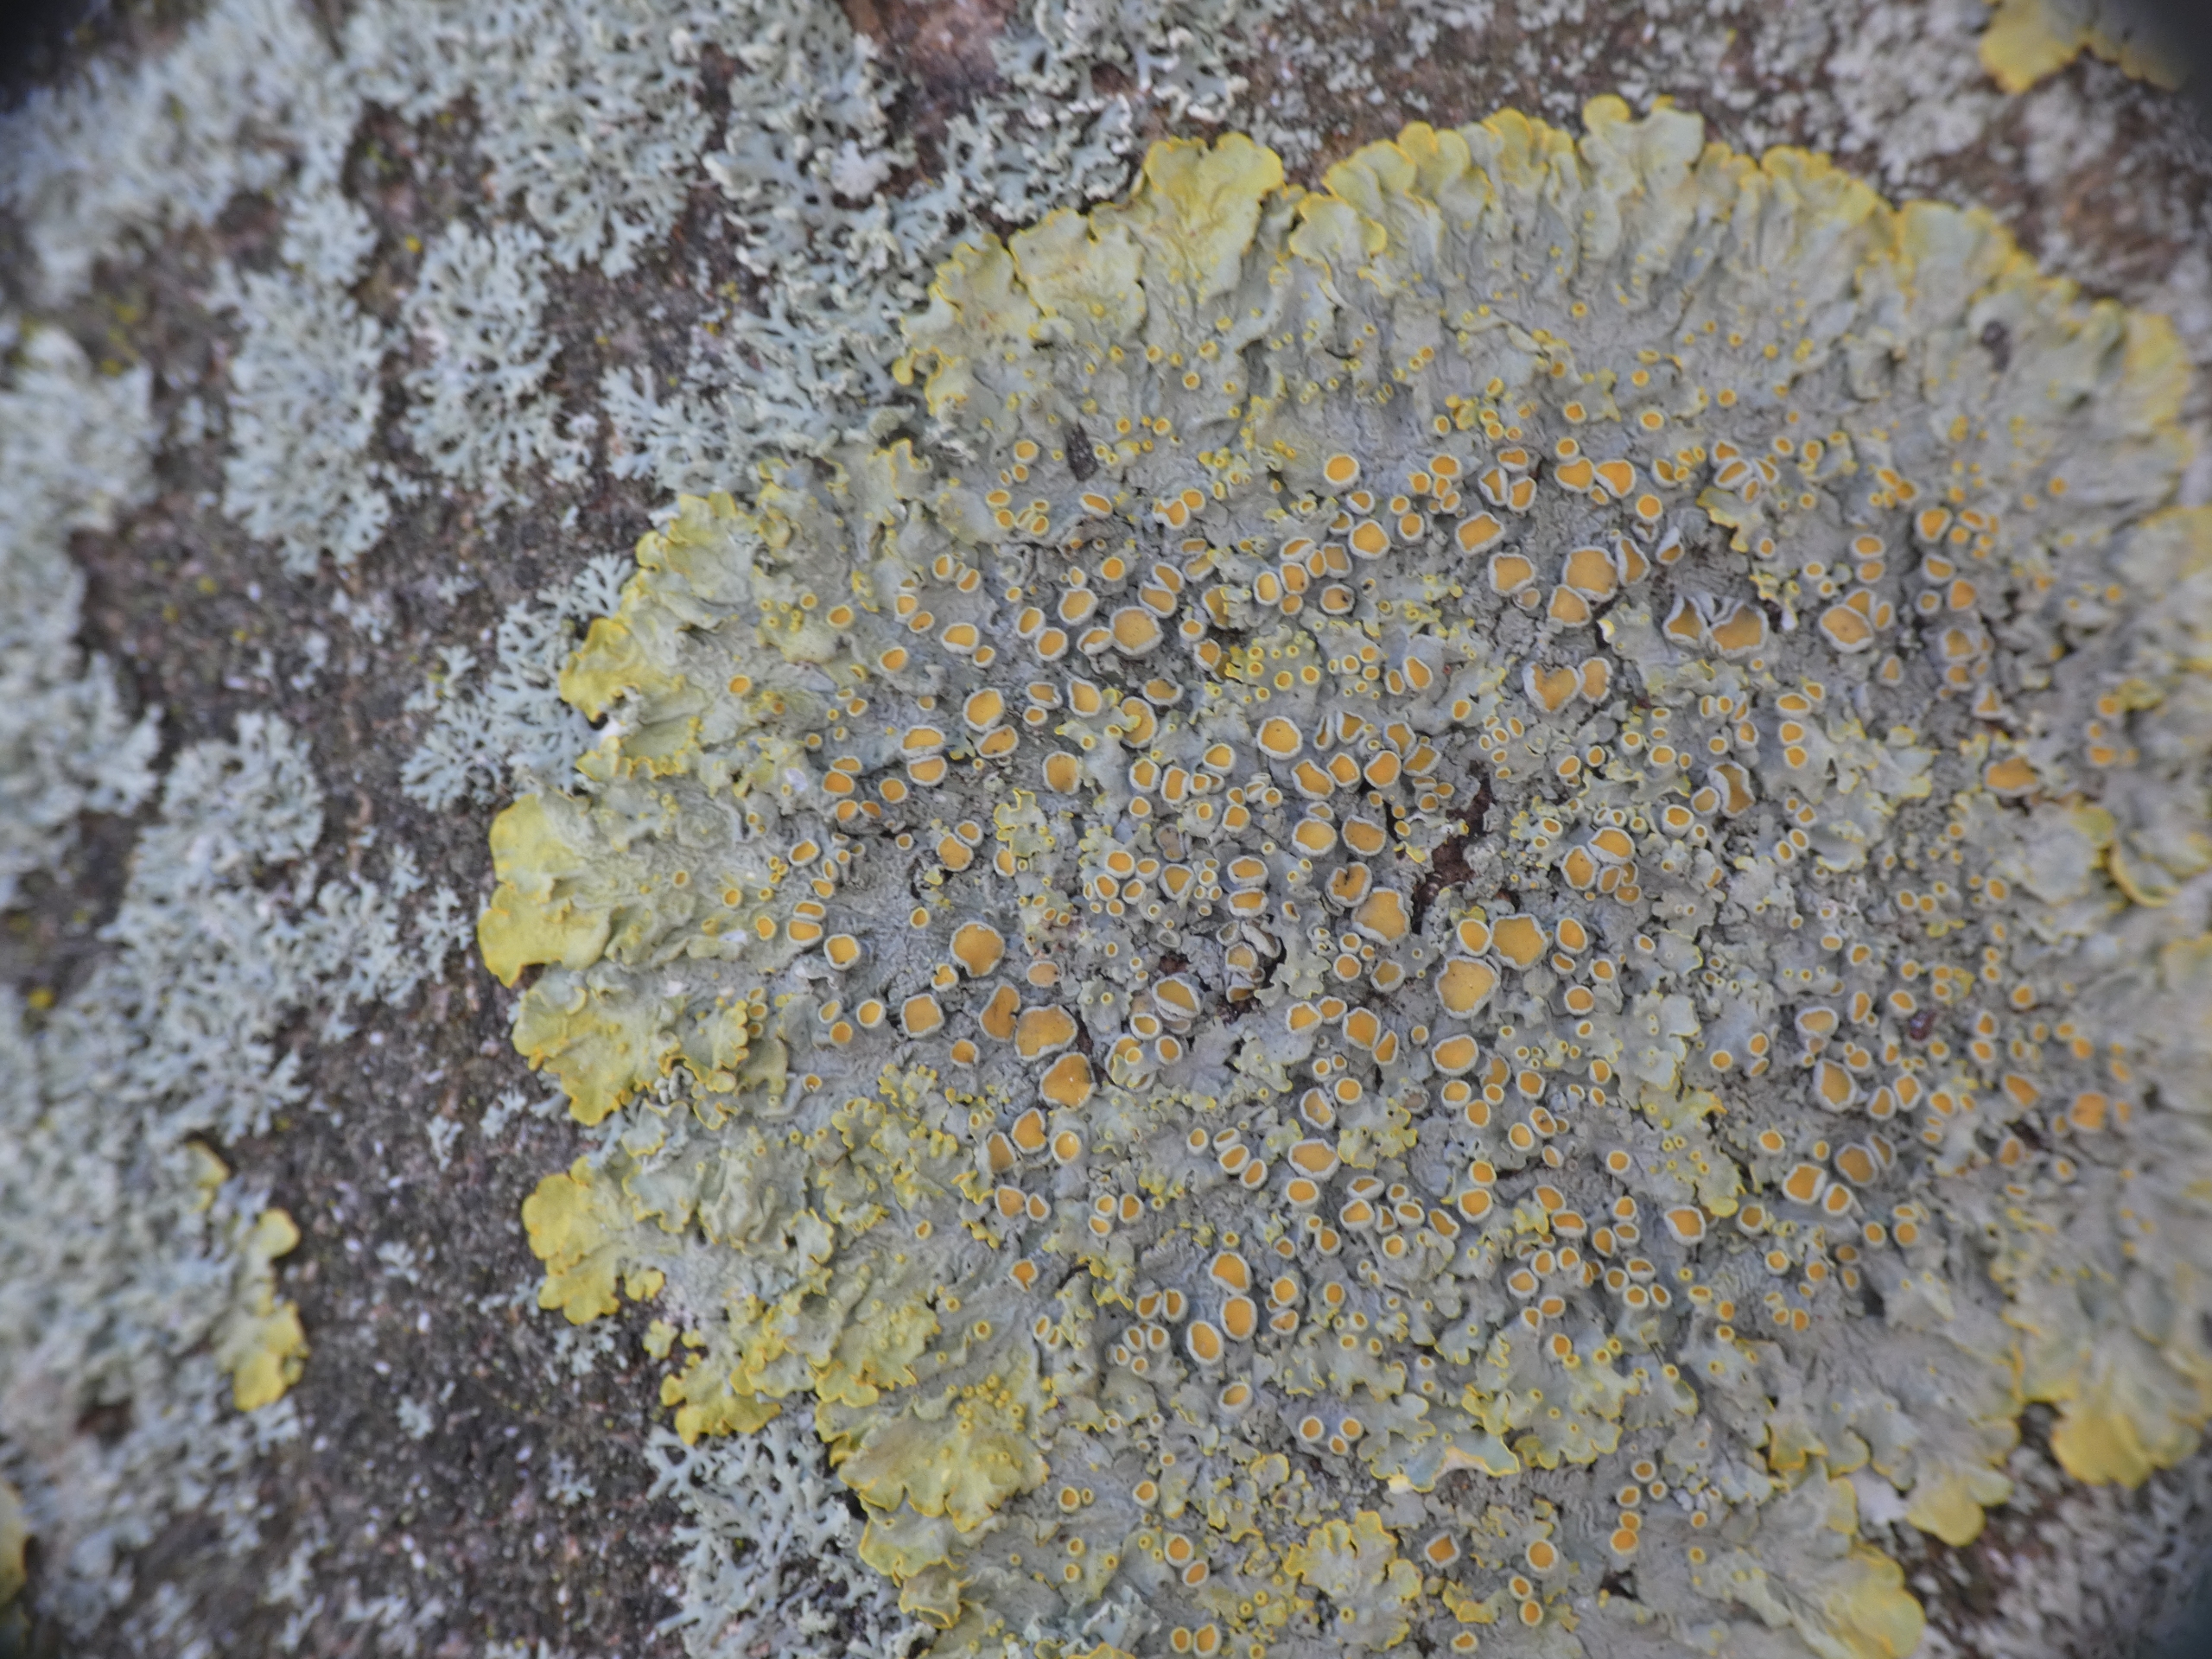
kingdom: Fungi
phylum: Ascomycota
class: Lecanoromycetes
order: Teloschistales
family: Teloschistaceae
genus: Xanthoria
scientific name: Xanthoria parietina
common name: Almindelig væggelav
